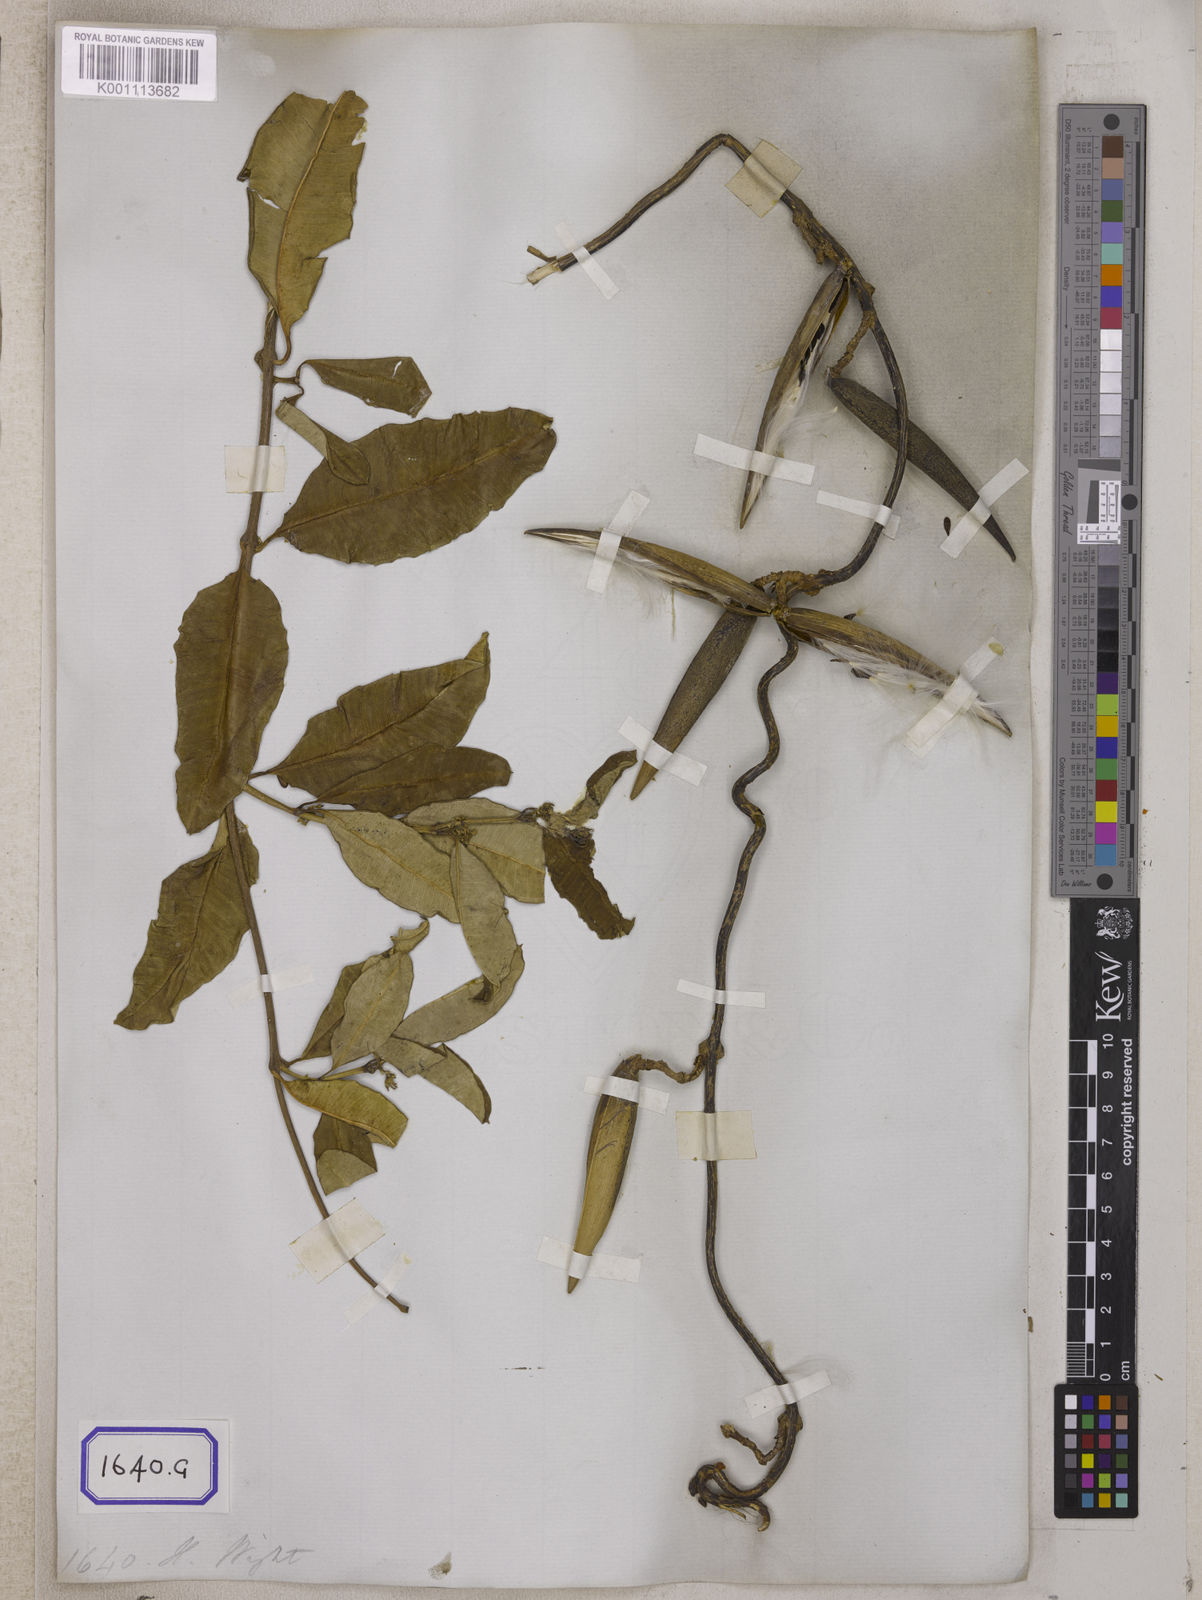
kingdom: Plantae
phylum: Tracheophyta
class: Magnoliopsida
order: Gentianales
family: Apocynaceae
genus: Cryptolepis
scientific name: Cryptolepis
